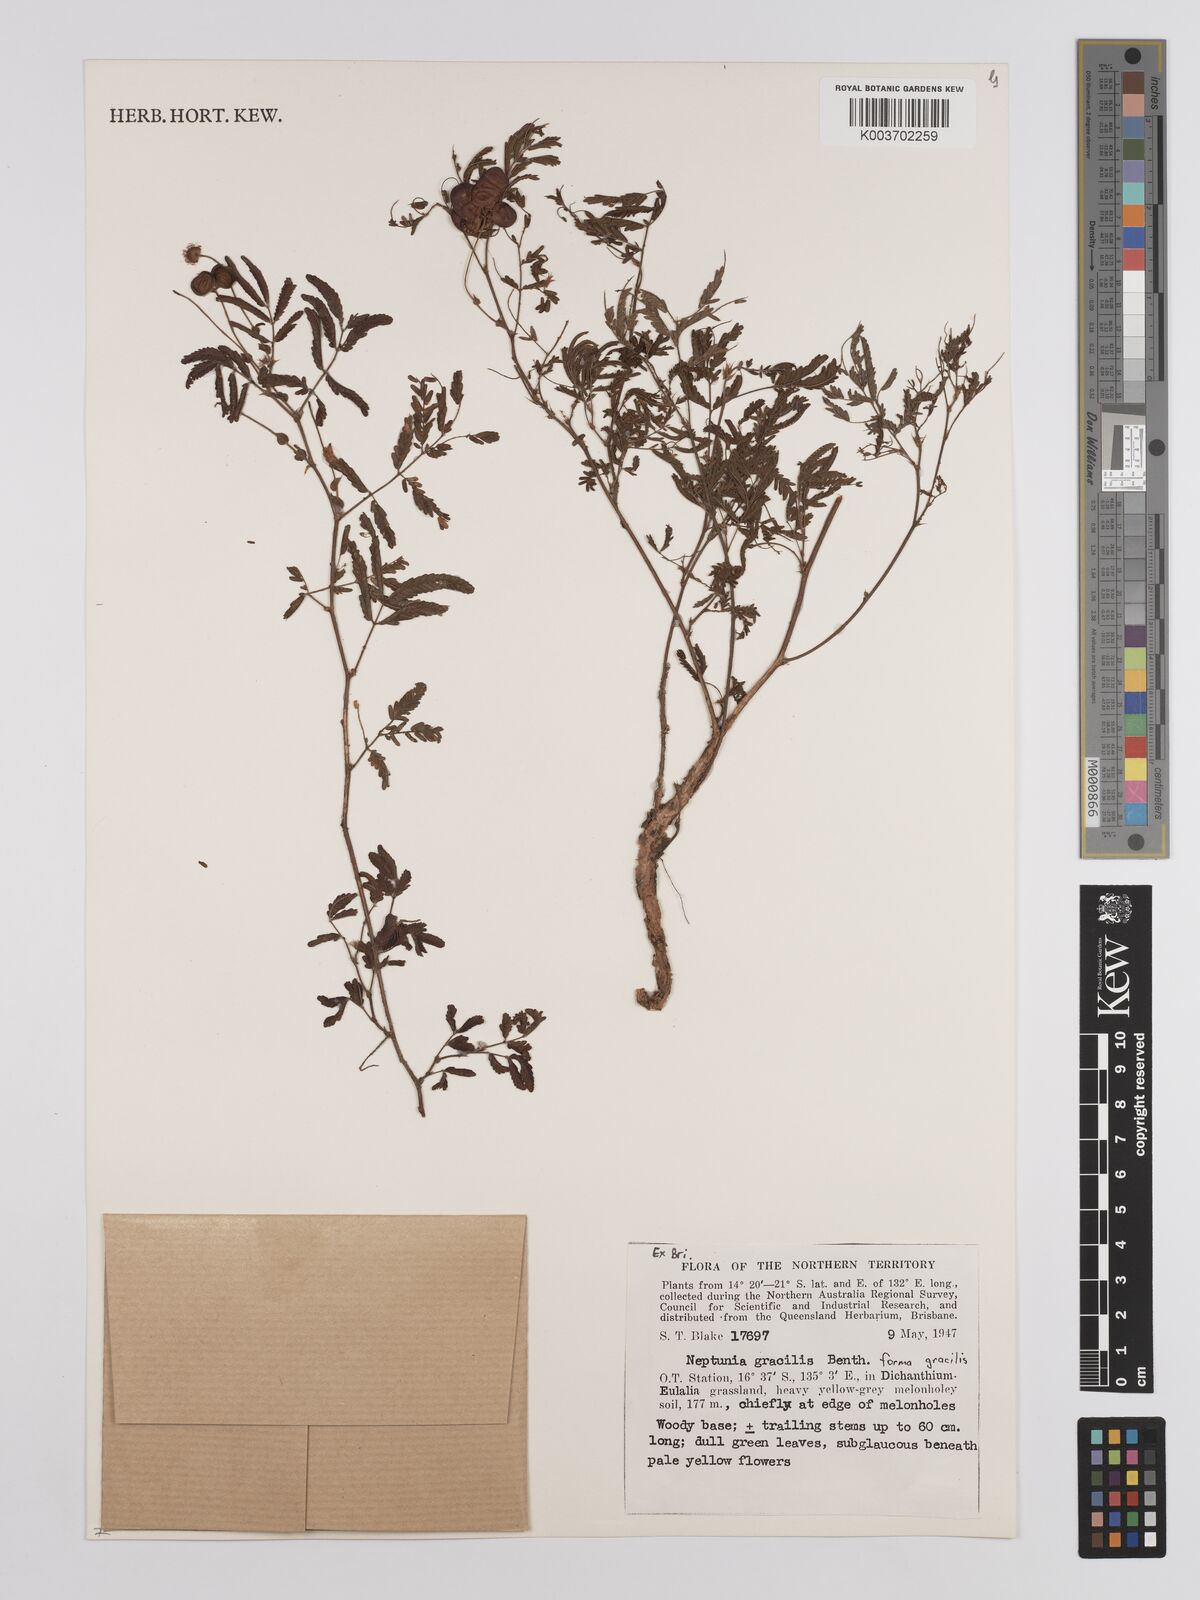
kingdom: Plantae
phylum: Tracheophyta
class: Magnoliopsida
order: Fabales
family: Fabaceae
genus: Neptunia
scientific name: Neptunia gracilis
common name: Sensitive-plant
